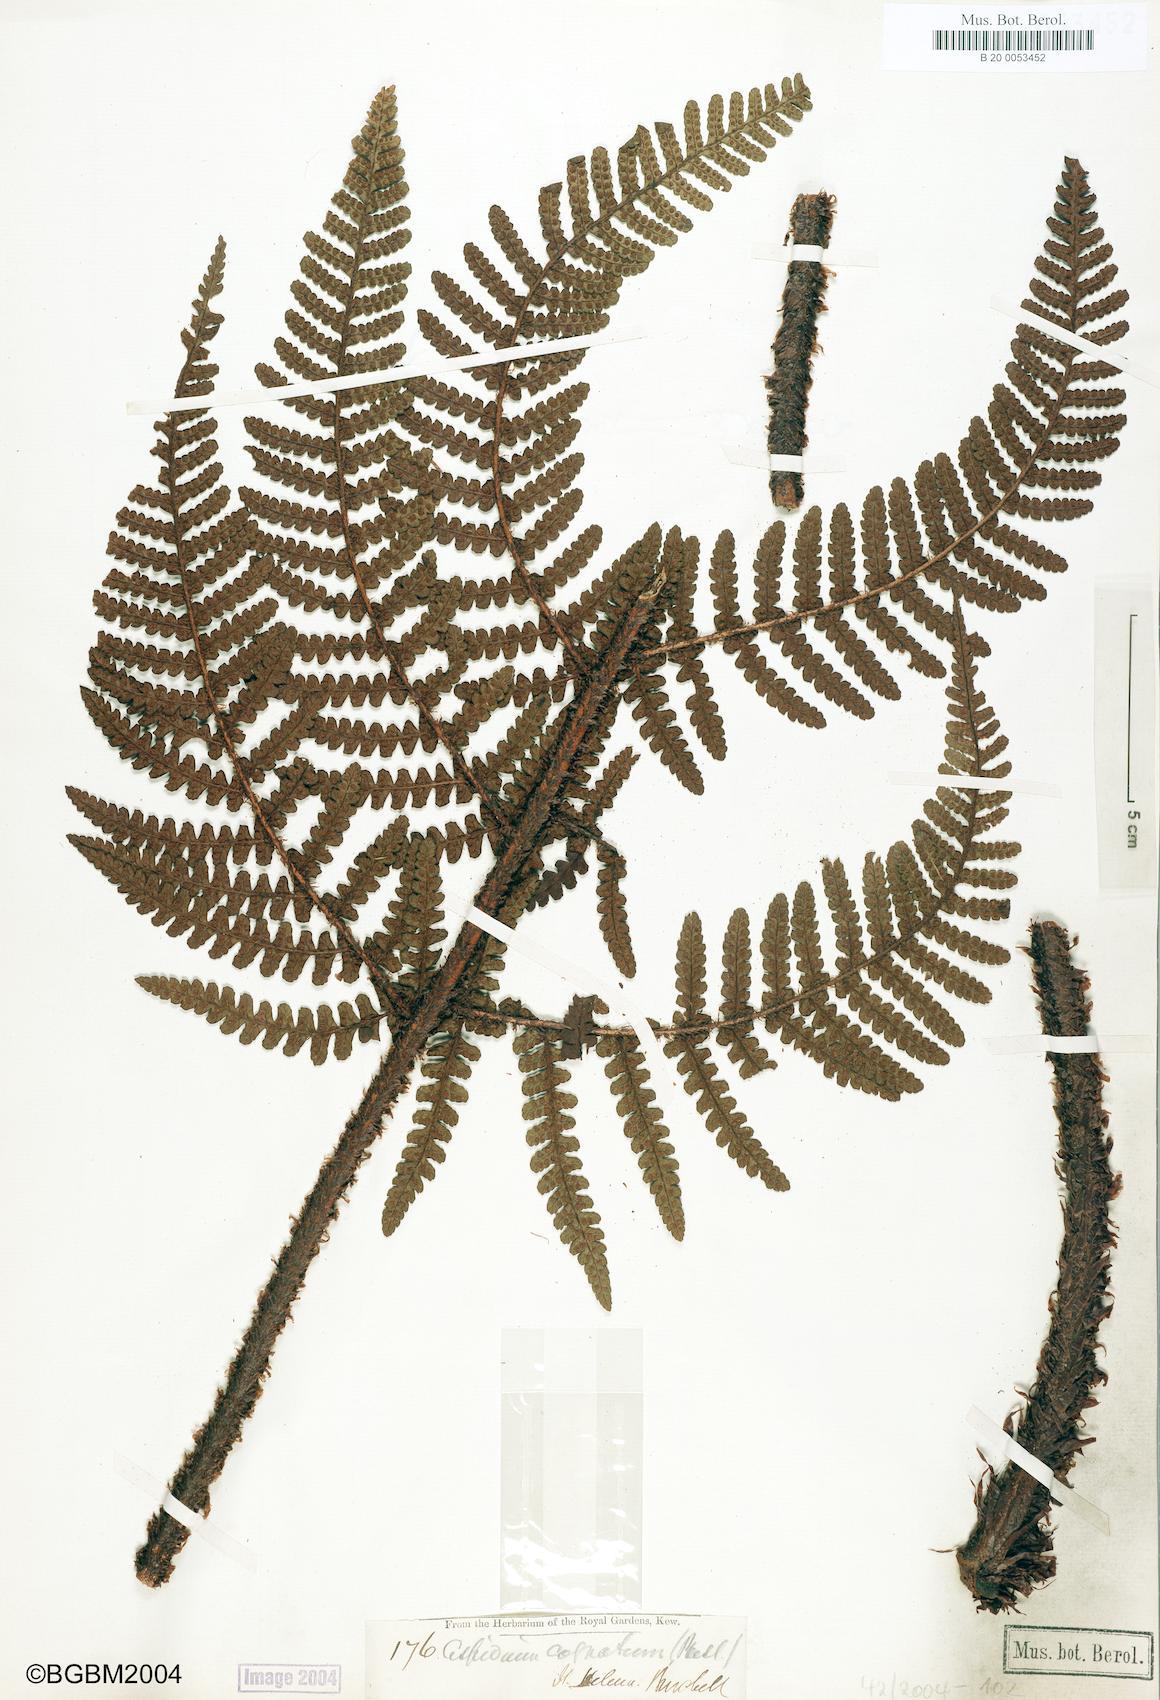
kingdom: Plantae
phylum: Tracheophyta
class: Polypodiopsida
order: Polypodiales
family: Dryopteridaceae
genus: Dryopteris
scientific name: Dryopteris cognata
